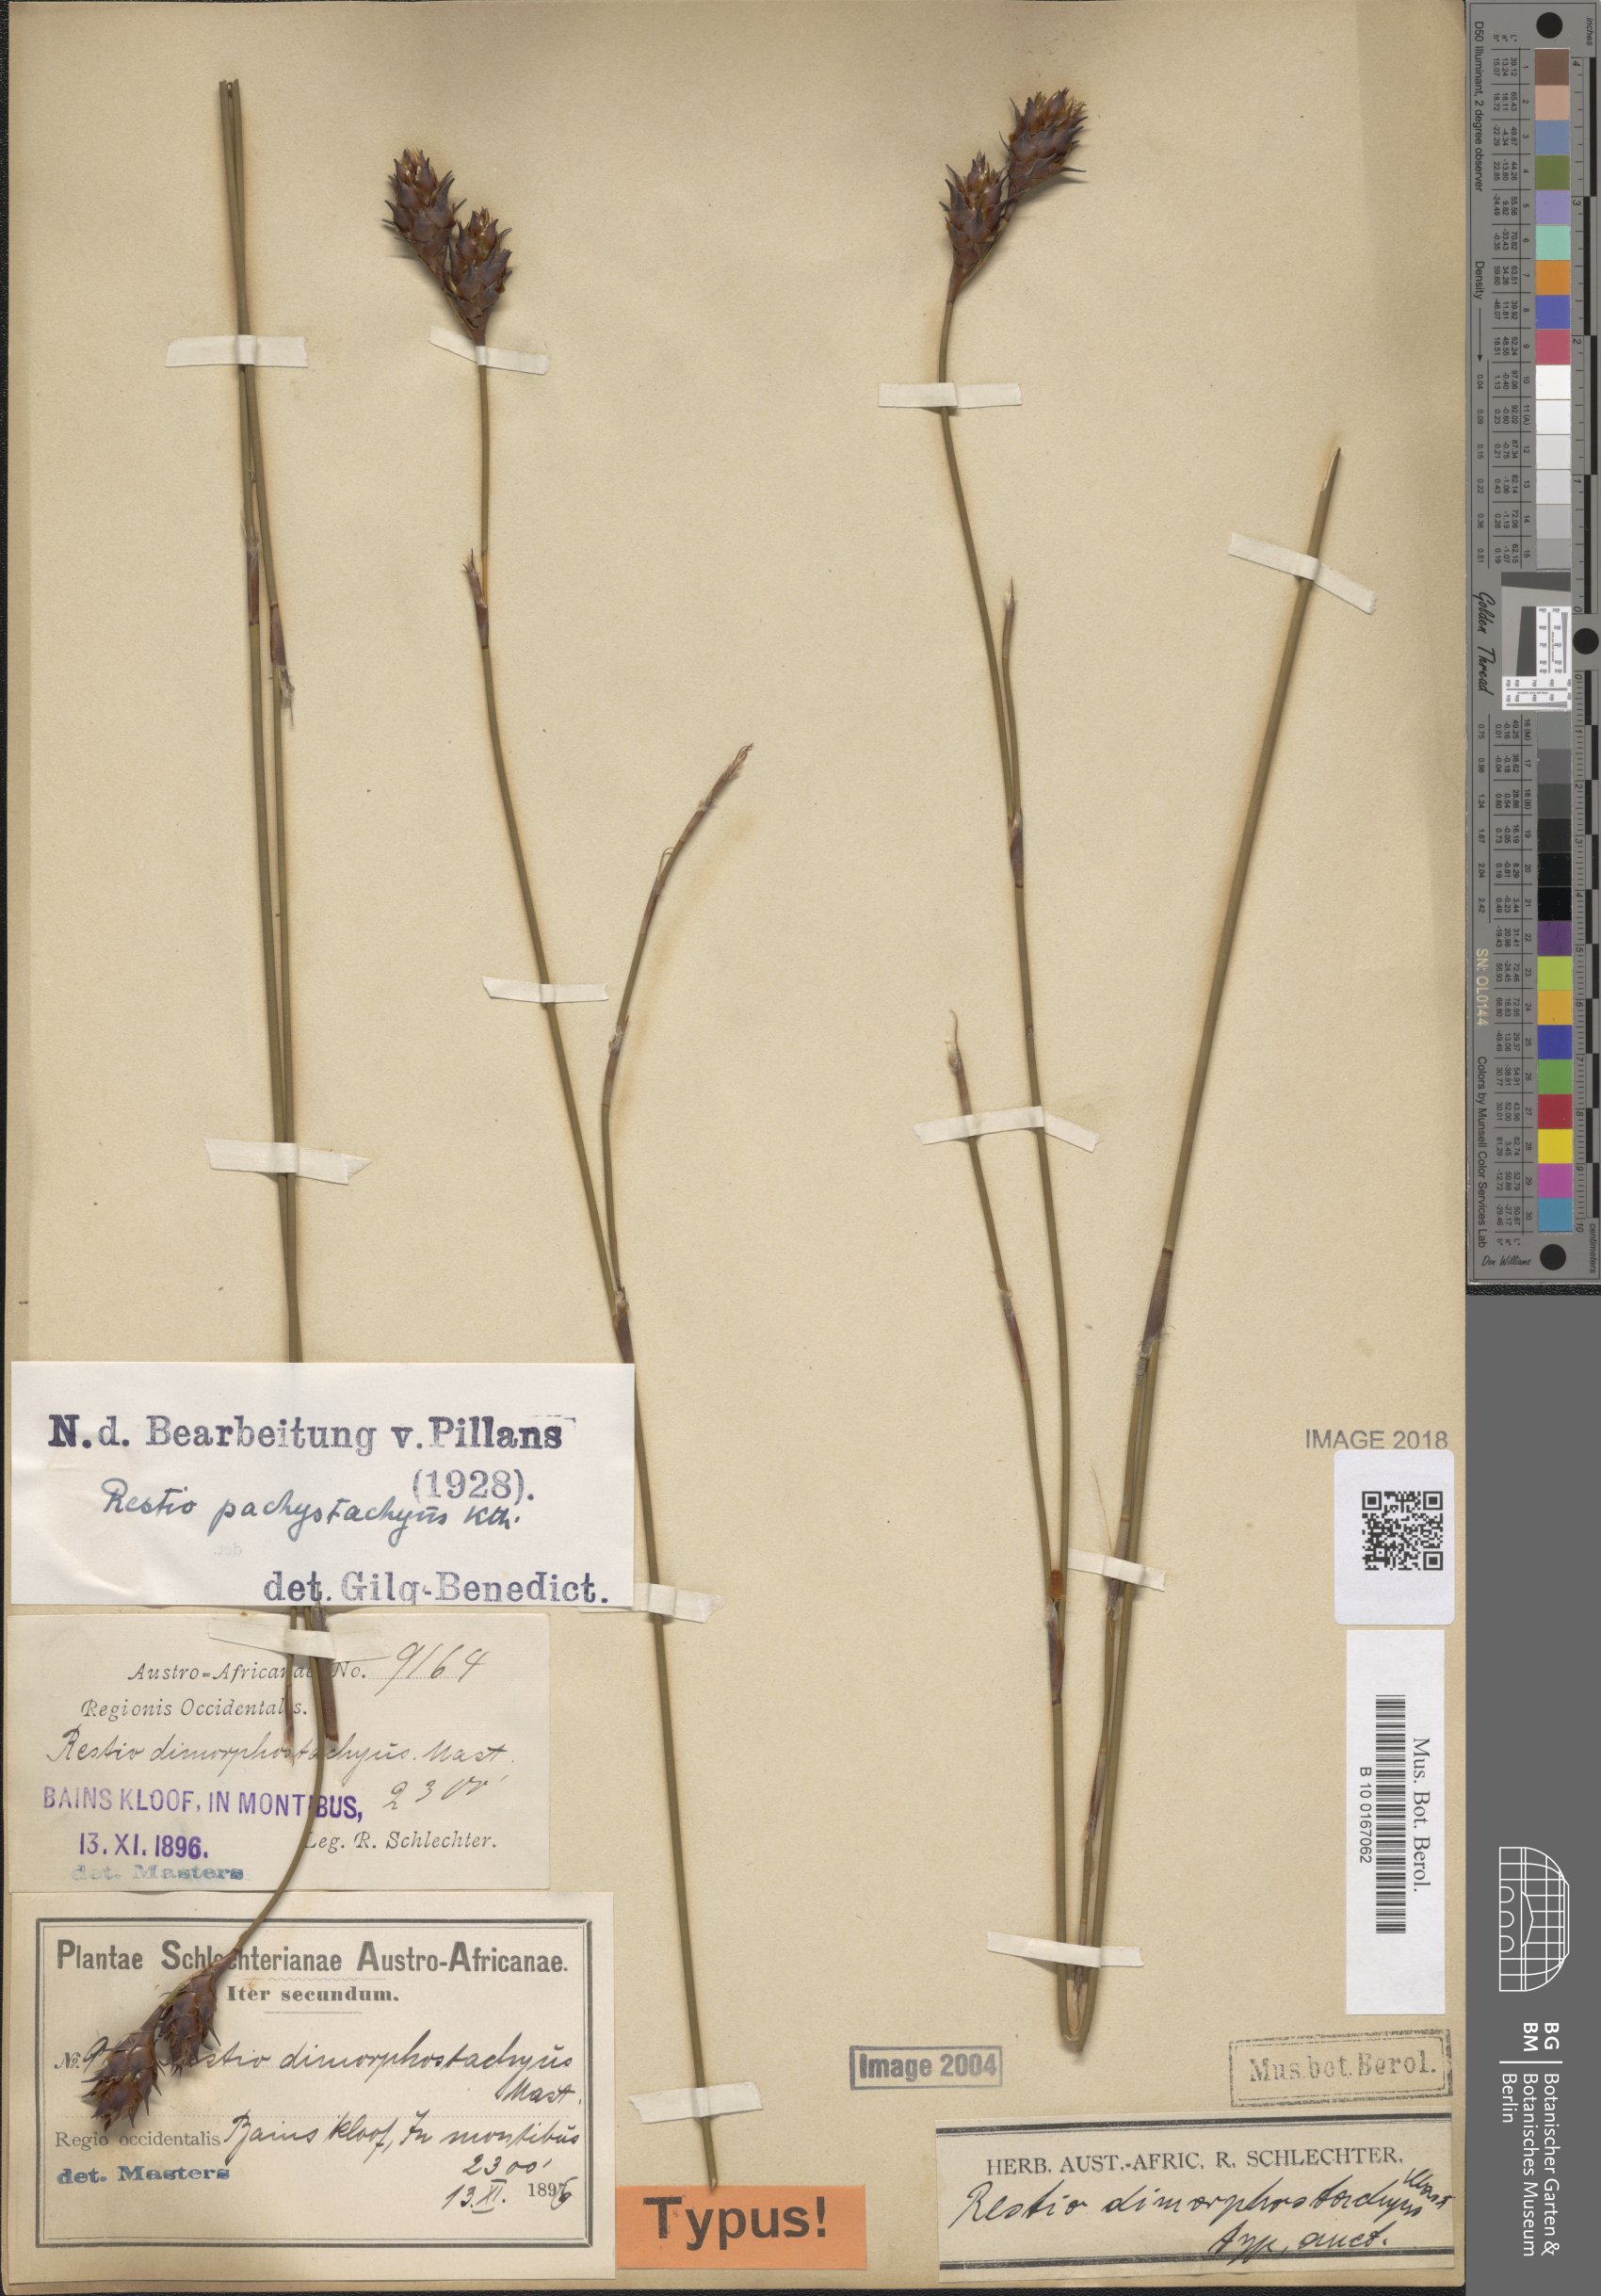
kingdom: Plantae
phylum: Tracheophyta
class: Liliopsida
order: Poales
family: Restionaceae
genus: Restio
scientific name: Restio pachystachyus
